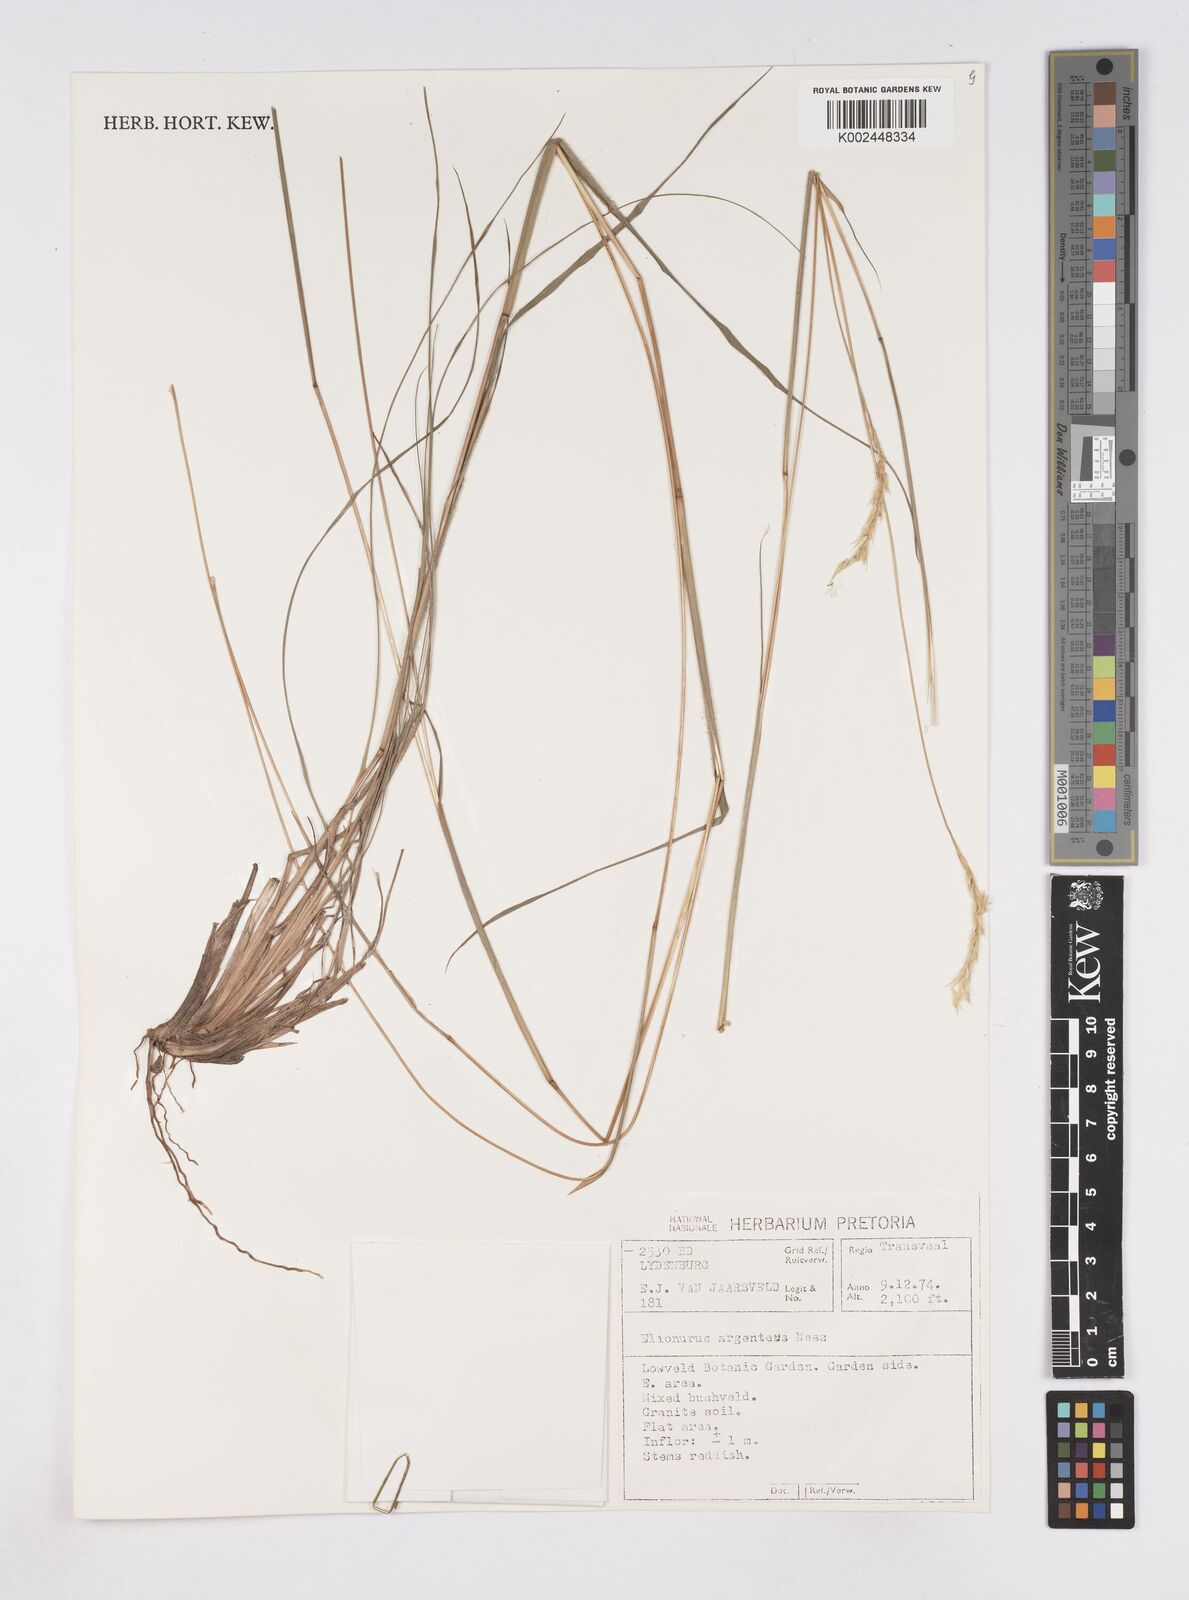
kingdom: Plantae
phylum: Tracheophyta
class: Liliopsida
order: Poales
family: Poaceae
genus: Elionurus
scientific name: Elionurus muticus
